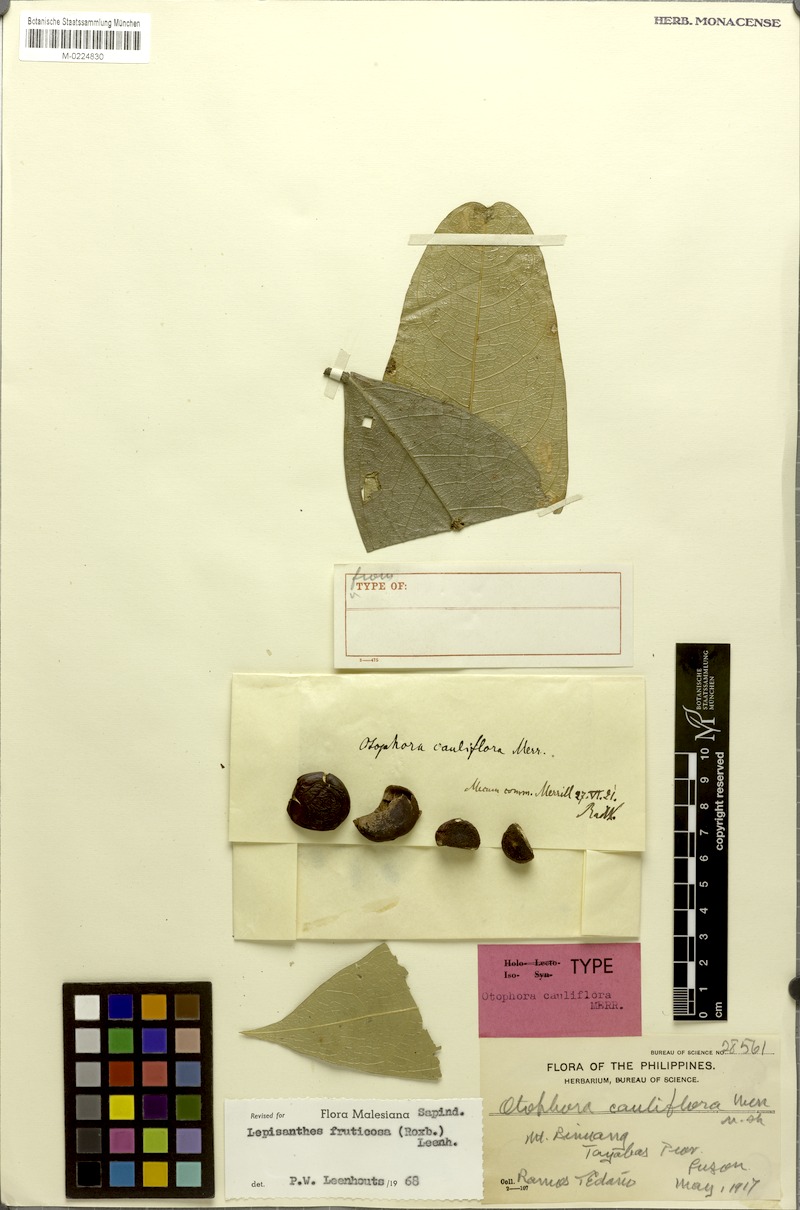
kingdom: Plantae
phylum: Tracheophyta
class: Magnoliopsida
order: Sapindales
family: Sapindaceae
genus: Lepisanthes
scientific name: Lepisanthes fruticosa
